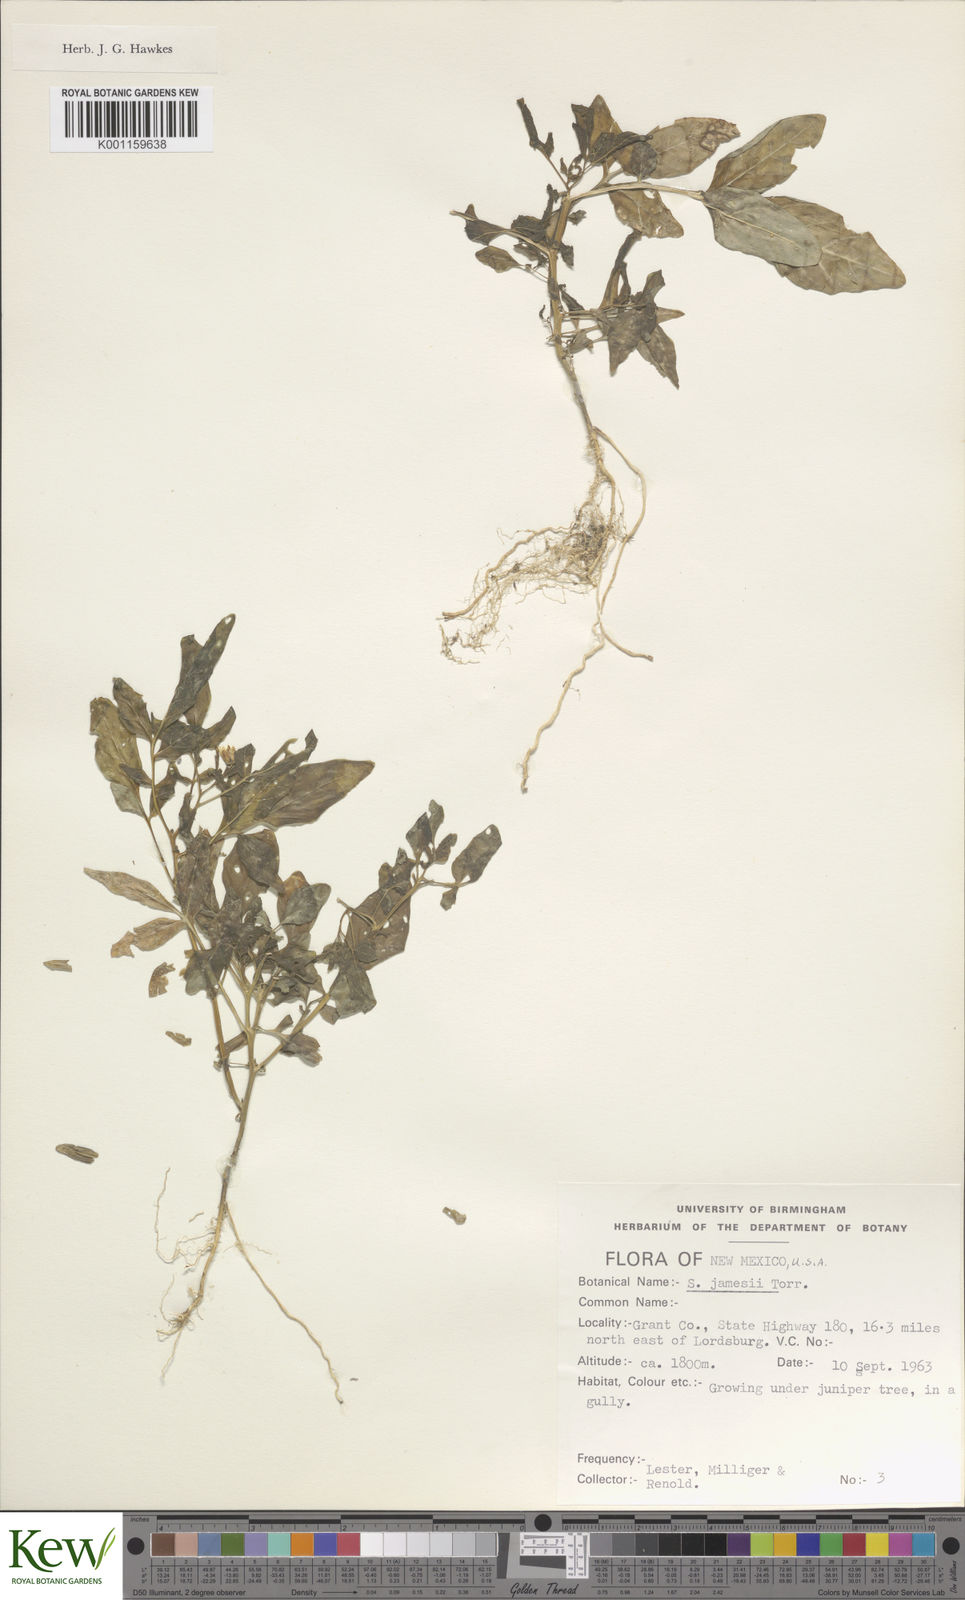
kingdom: Plantae
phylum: Tracheophyta
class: Magnoliopsida
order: Solanales
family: Solanaceae
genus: Solanum
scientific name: Solanum jamesii
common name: Wild potato
